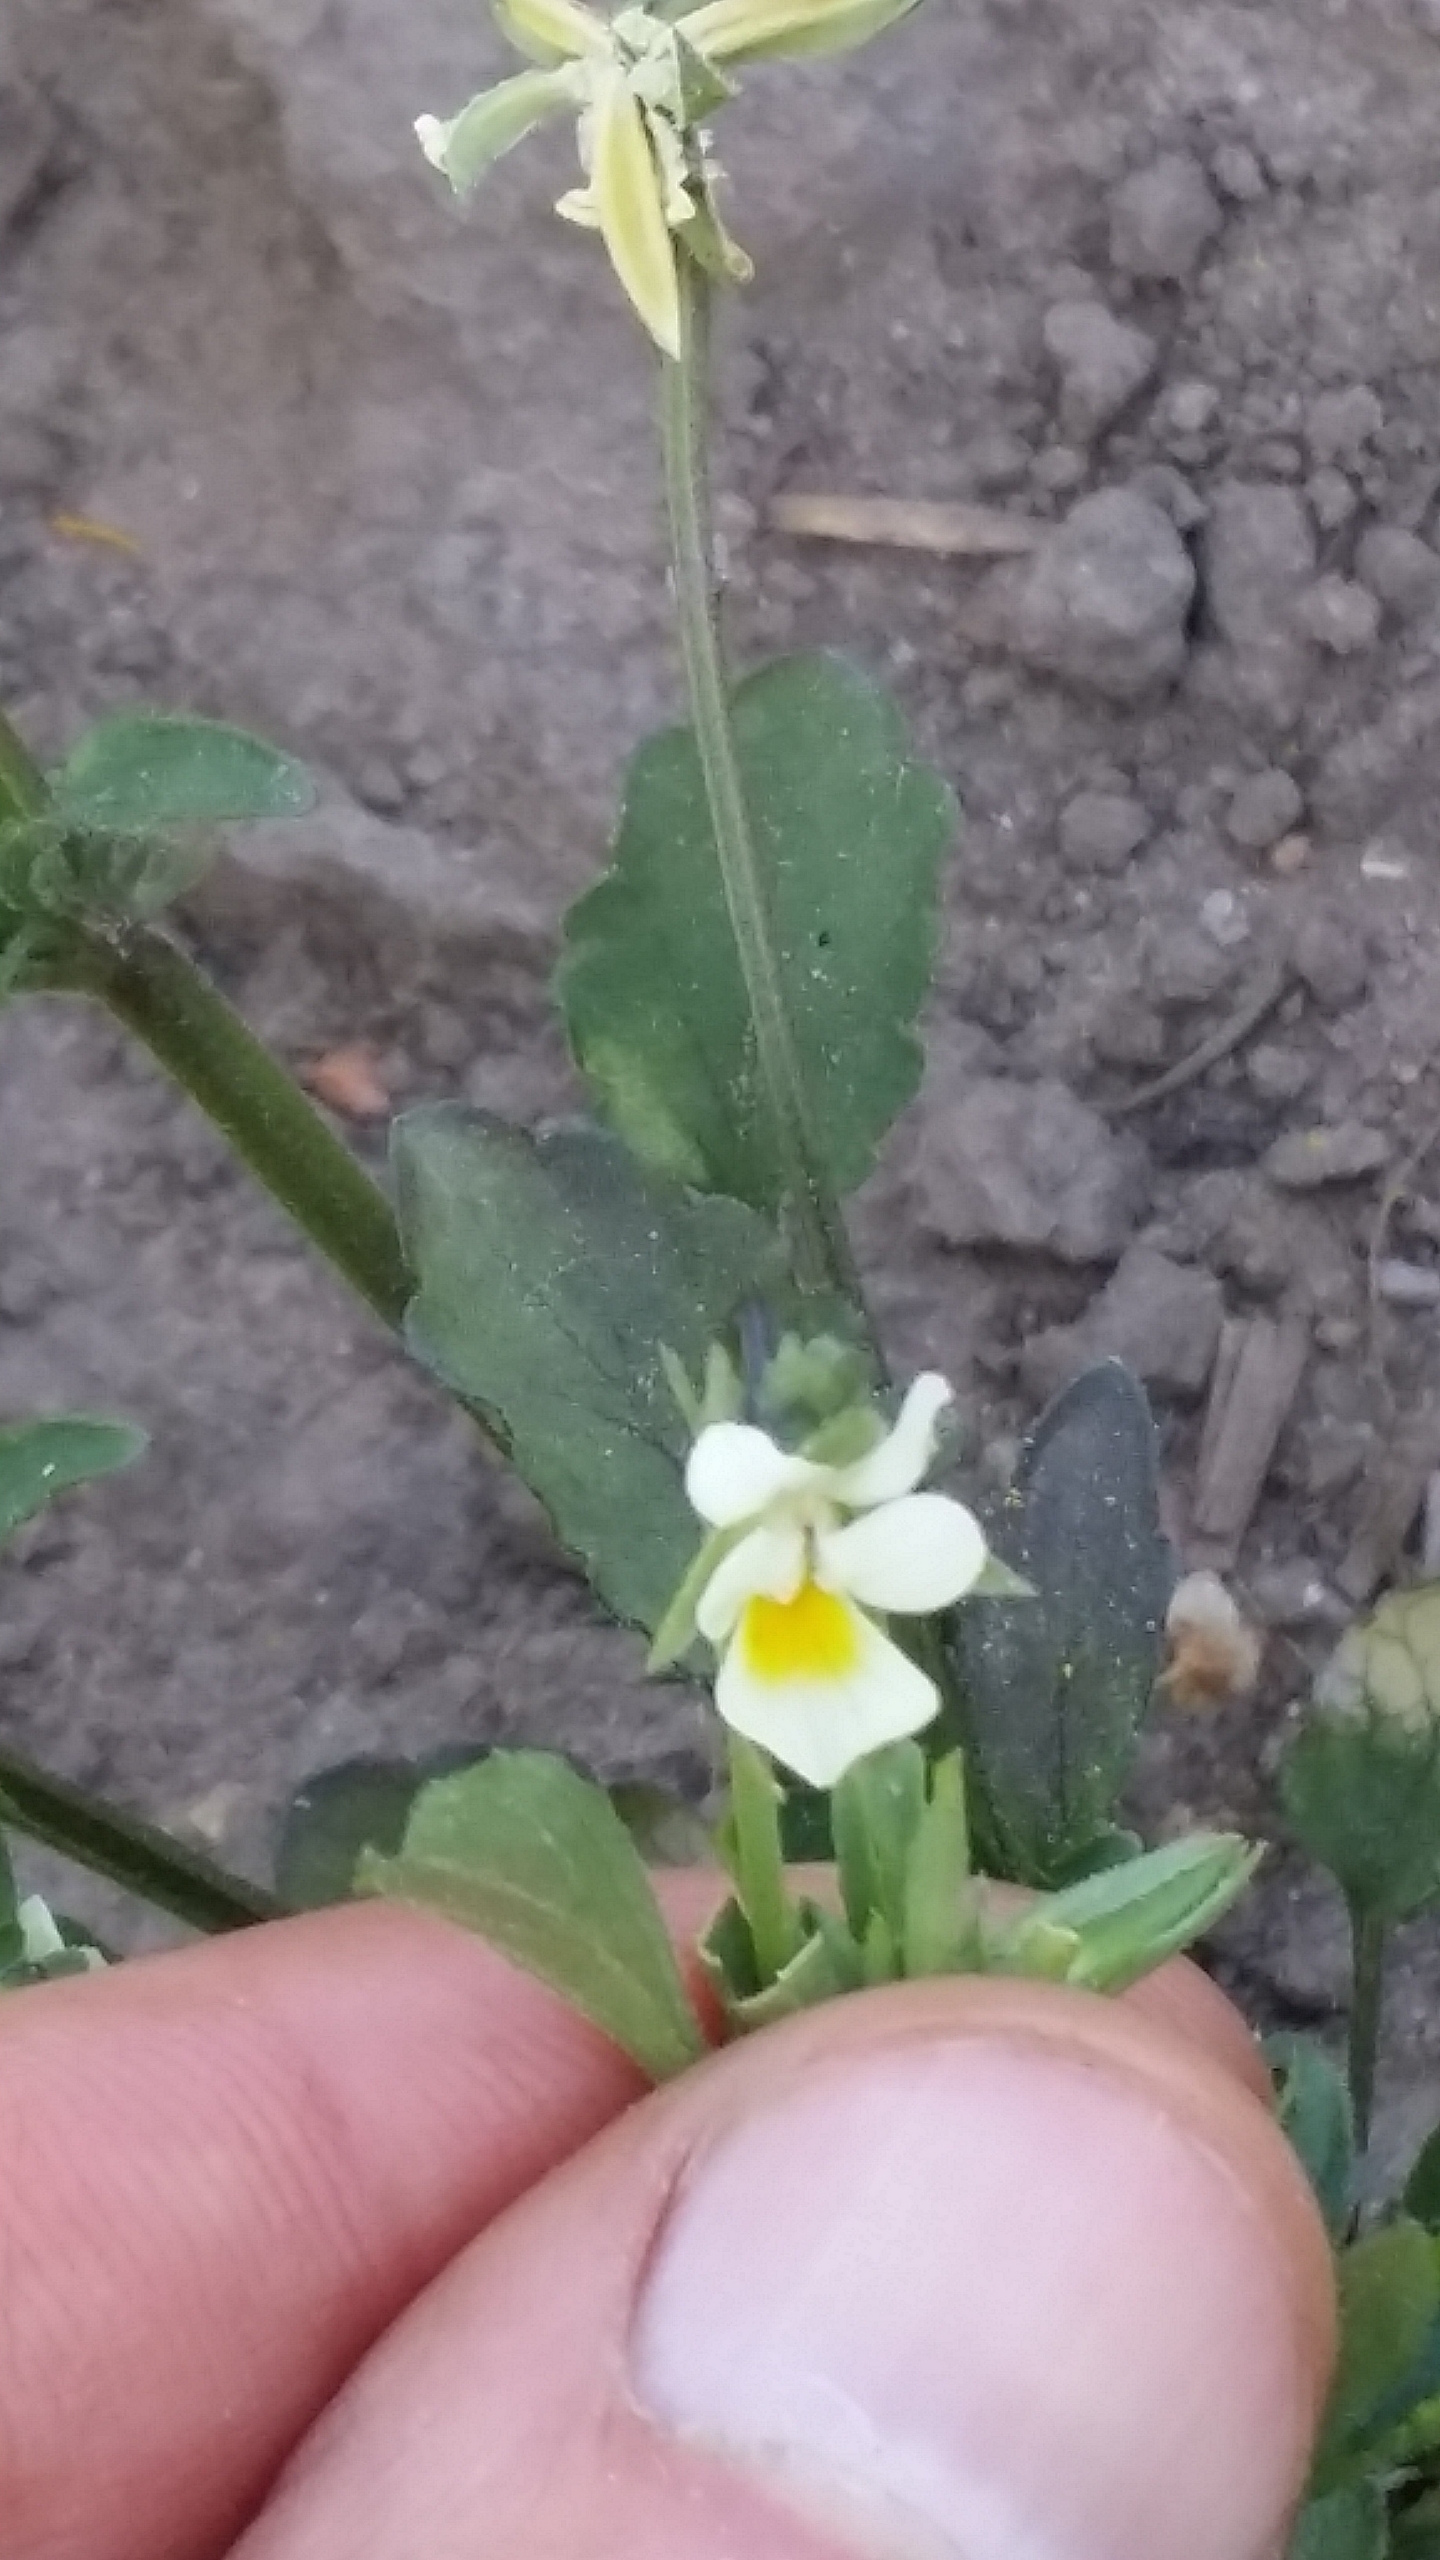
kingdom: Plantae
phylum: Tracheophyta
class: Magnoliopsida
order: Malpighiales
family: Violaceae
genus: Viola
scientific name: Viola arvensis
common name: Ager-stedmoderblomst
